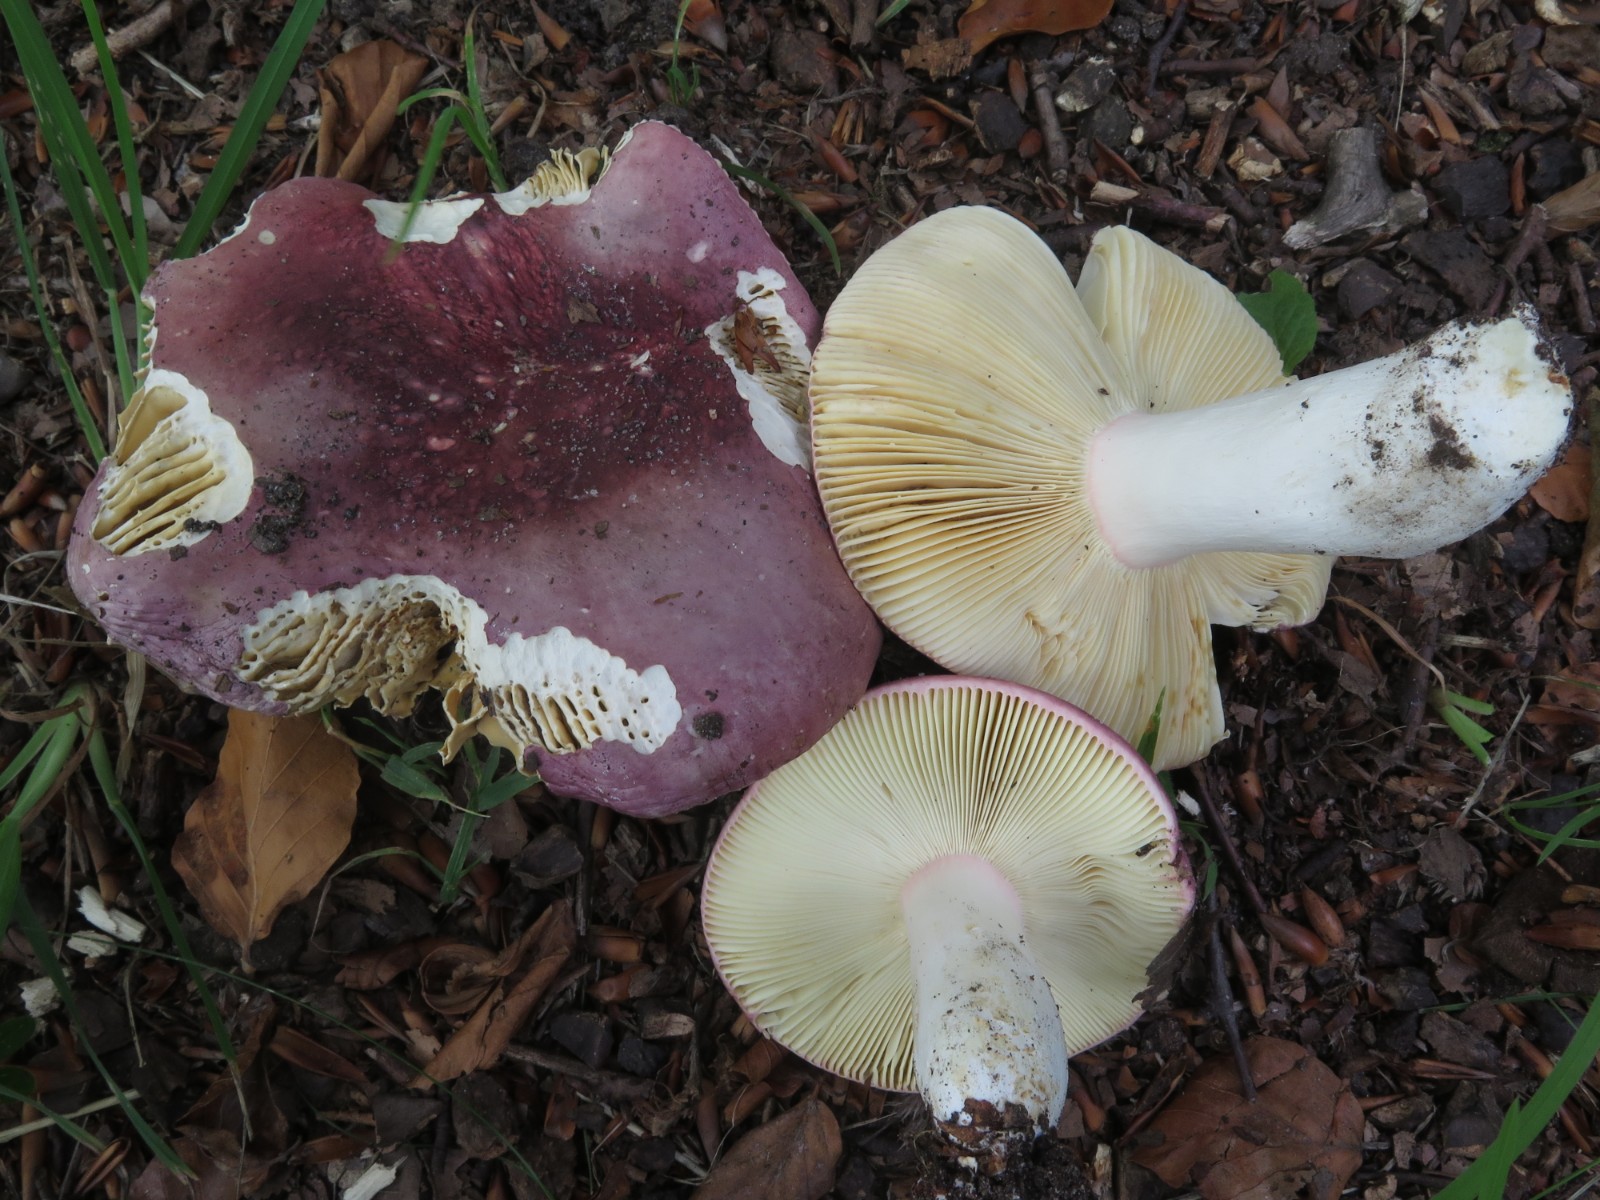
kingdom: Fungi
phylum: Basidiomycota
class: Agaricomycetes
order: Russulales
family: Russulaceae
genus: Russula
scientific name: Russula olivacea
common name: stor skørhat
